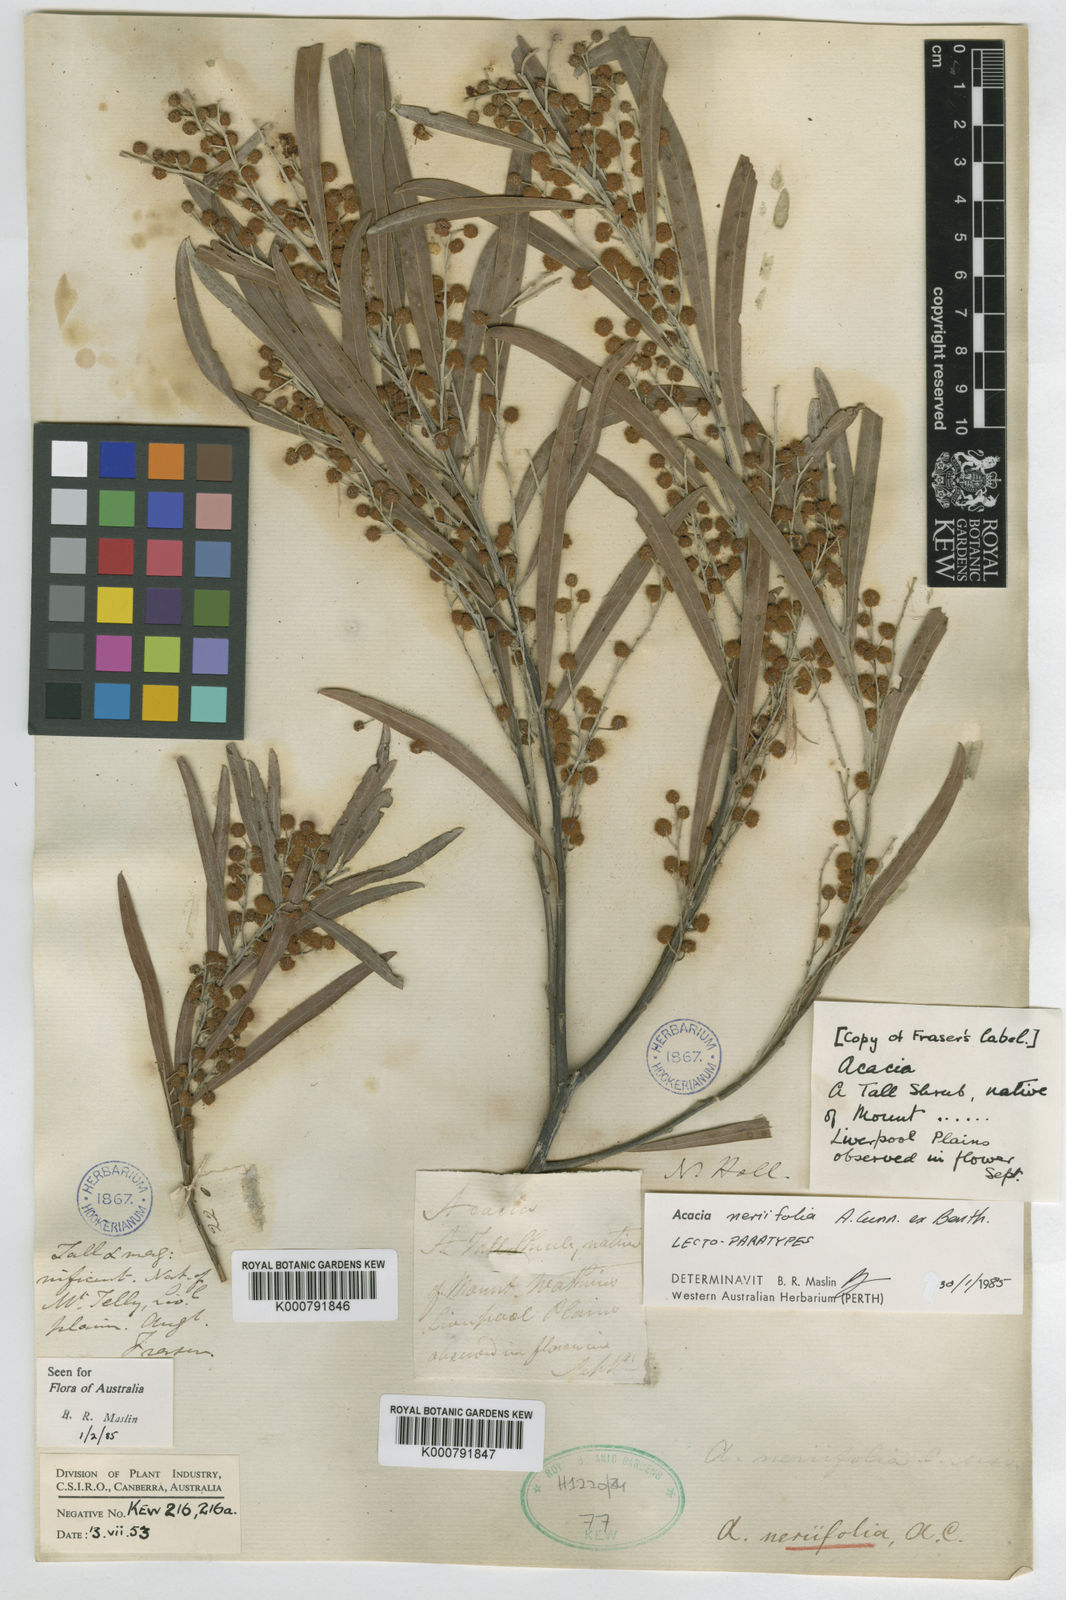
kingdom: Plantae
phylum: Tracheophyta
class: Magnoliopsida
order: Fabales
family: Fabaceae
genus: Acacia
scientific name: Acacia neriifolia
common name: Oleander wattle
